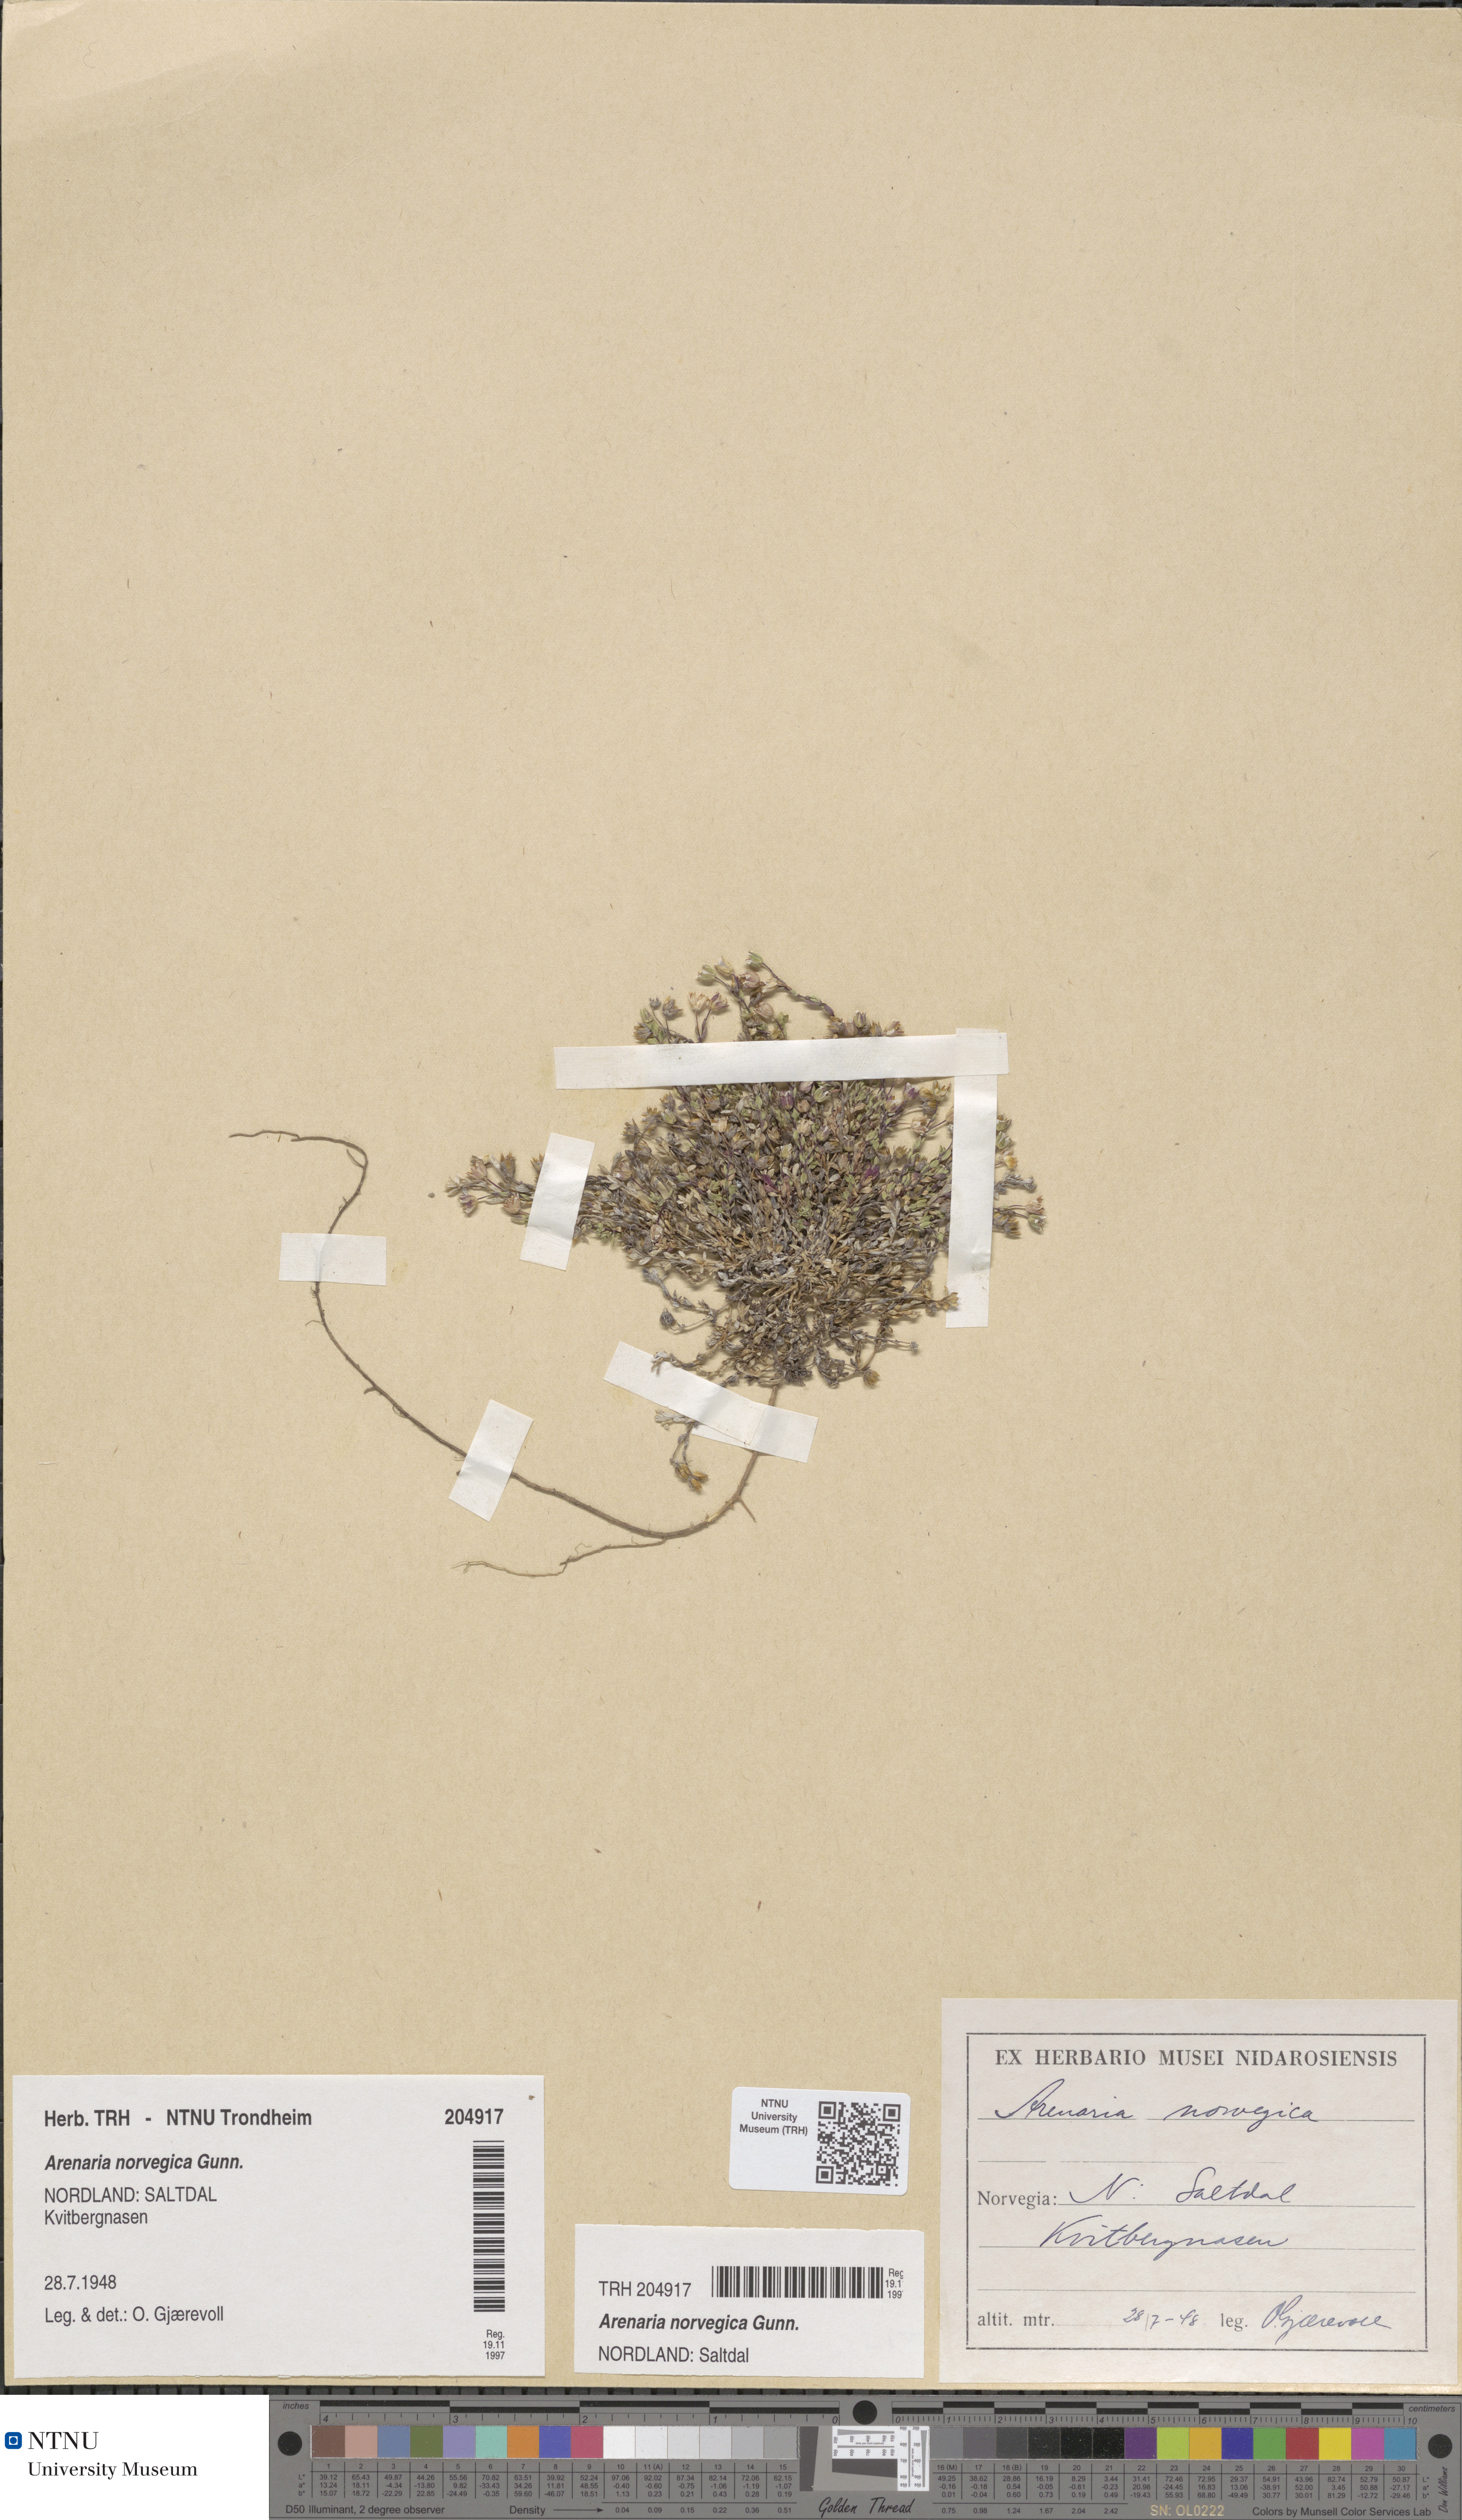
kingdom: Plantae
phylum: Tracheophyta
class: Magnoliopsida
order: Caryophyllales
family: Caryophyllaceae
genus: Arenaria
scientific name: Arenaria norvegica
